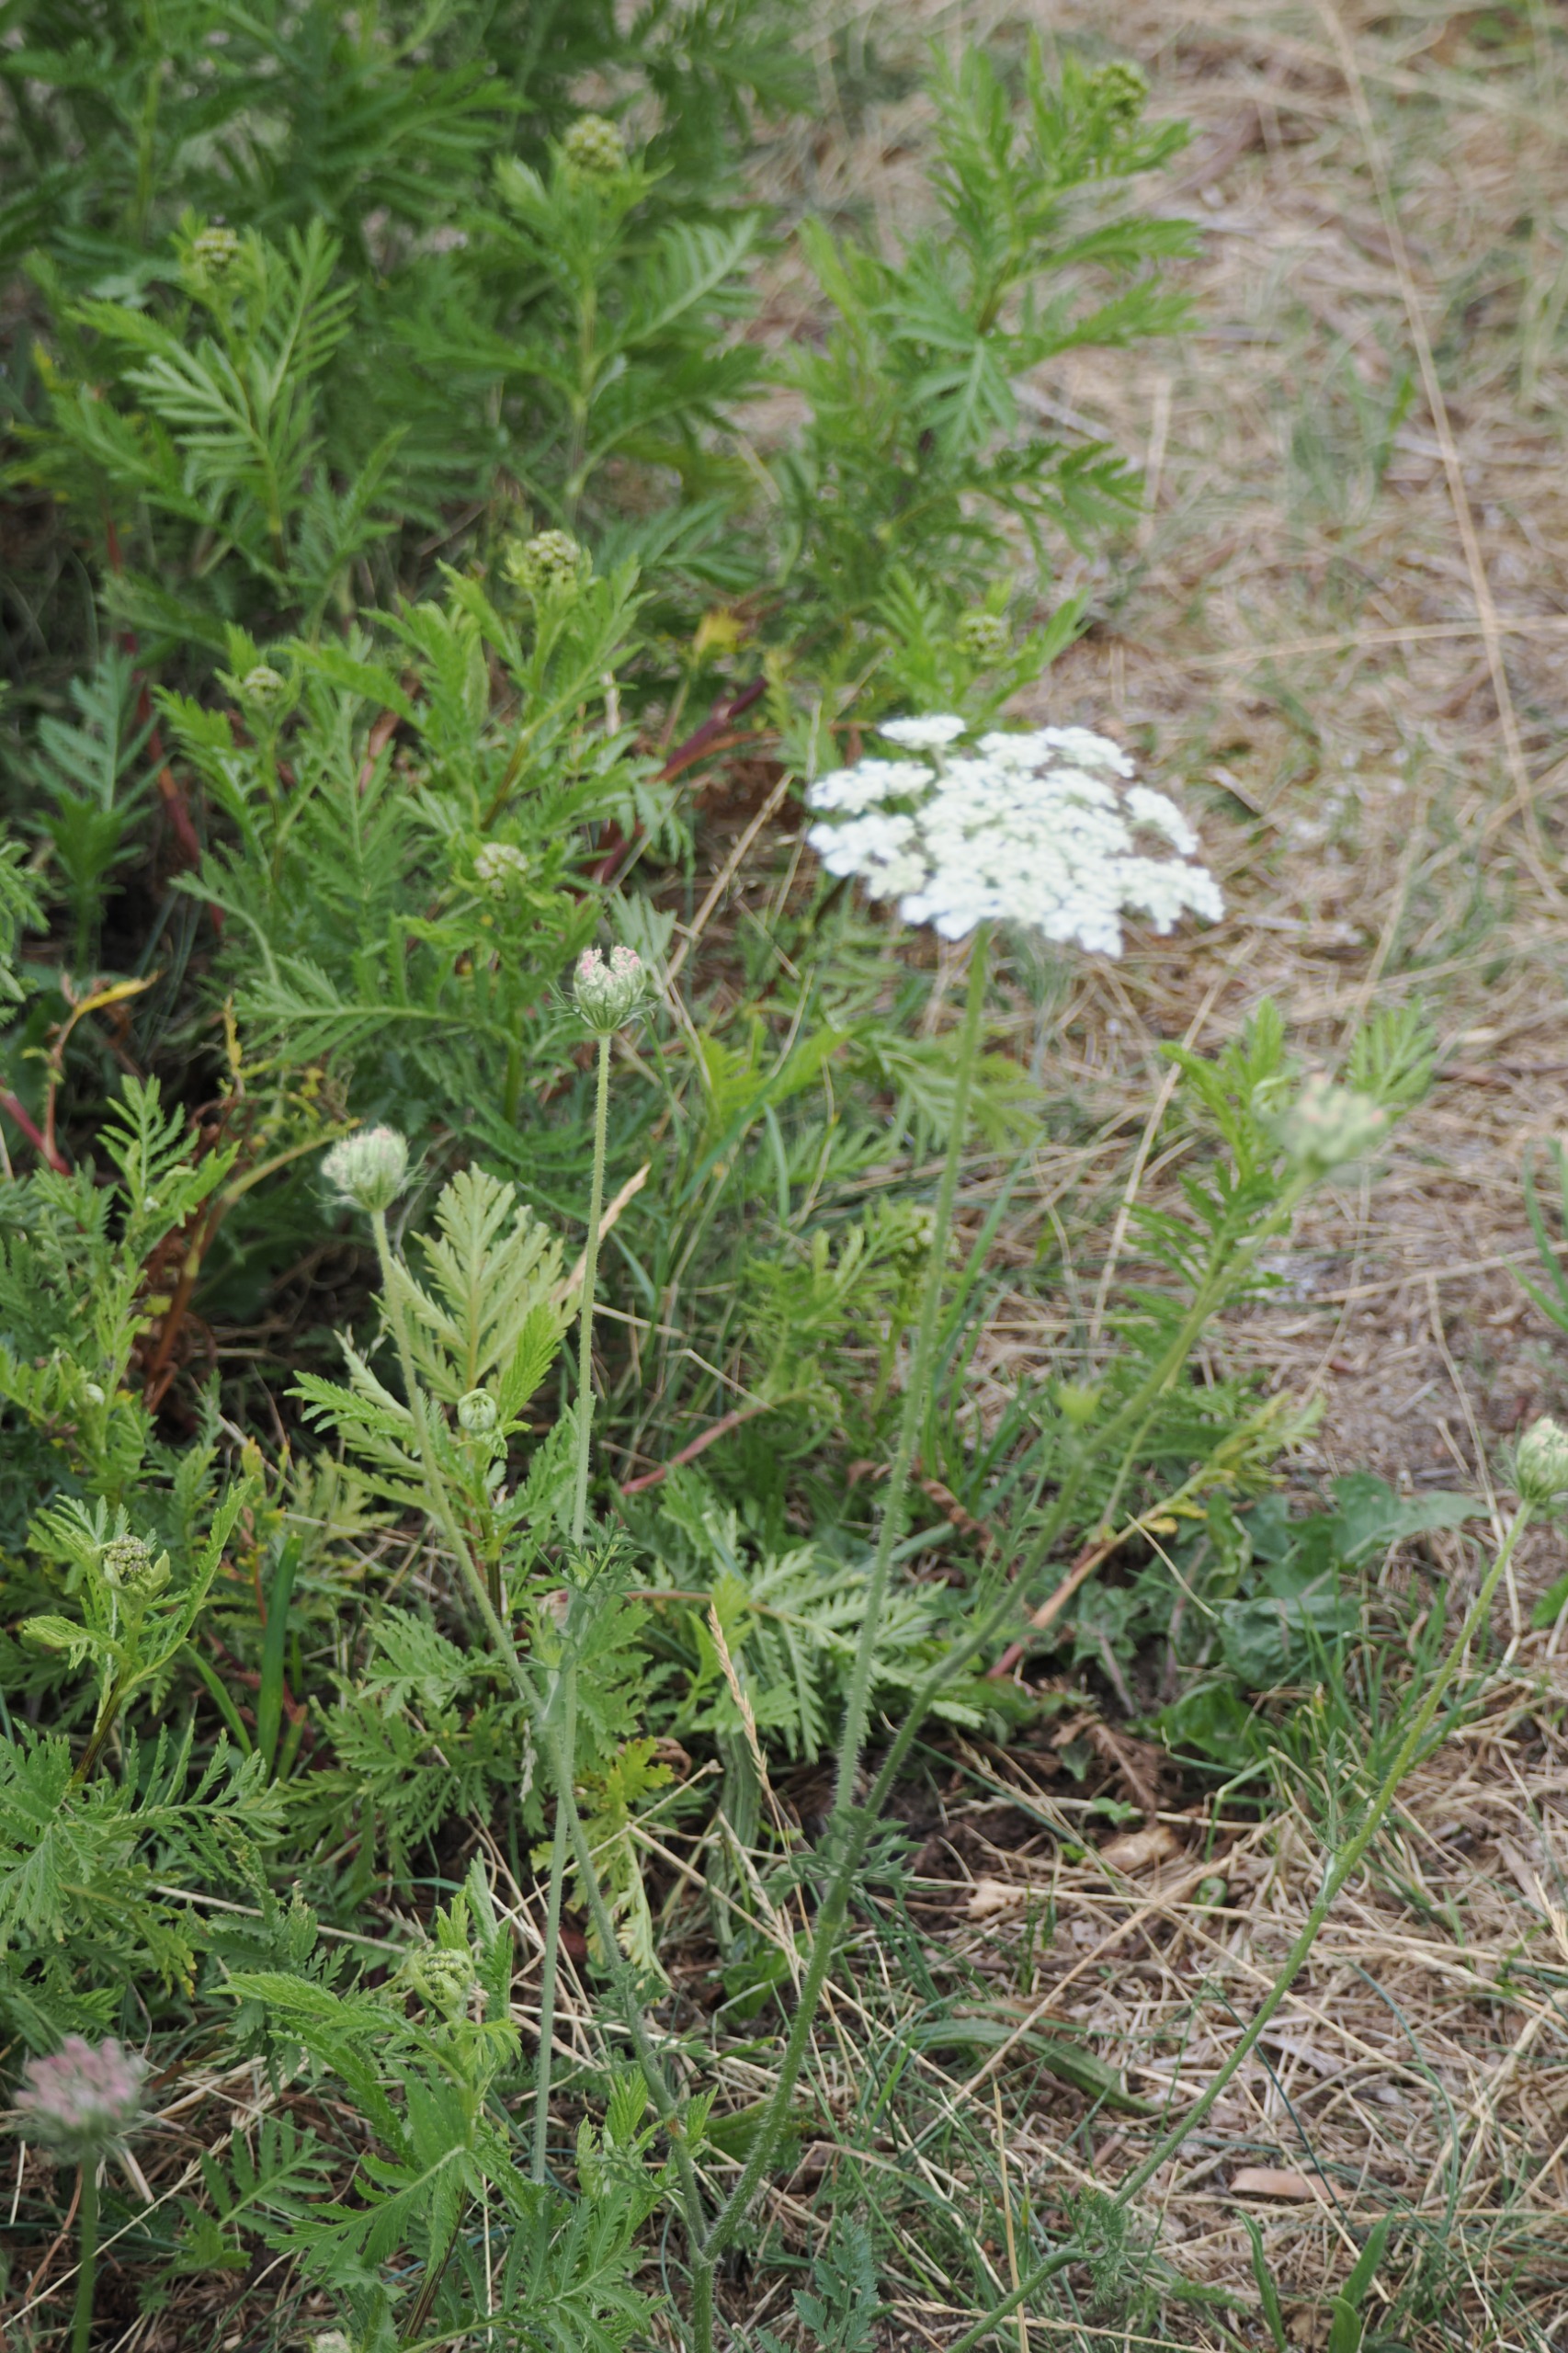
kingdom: Plantae
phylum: Tracheophyta
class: Magnoliopsida
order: Apiales
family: Apiaceae
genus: Daucus
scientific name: Daucus carota
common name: Gulerod
